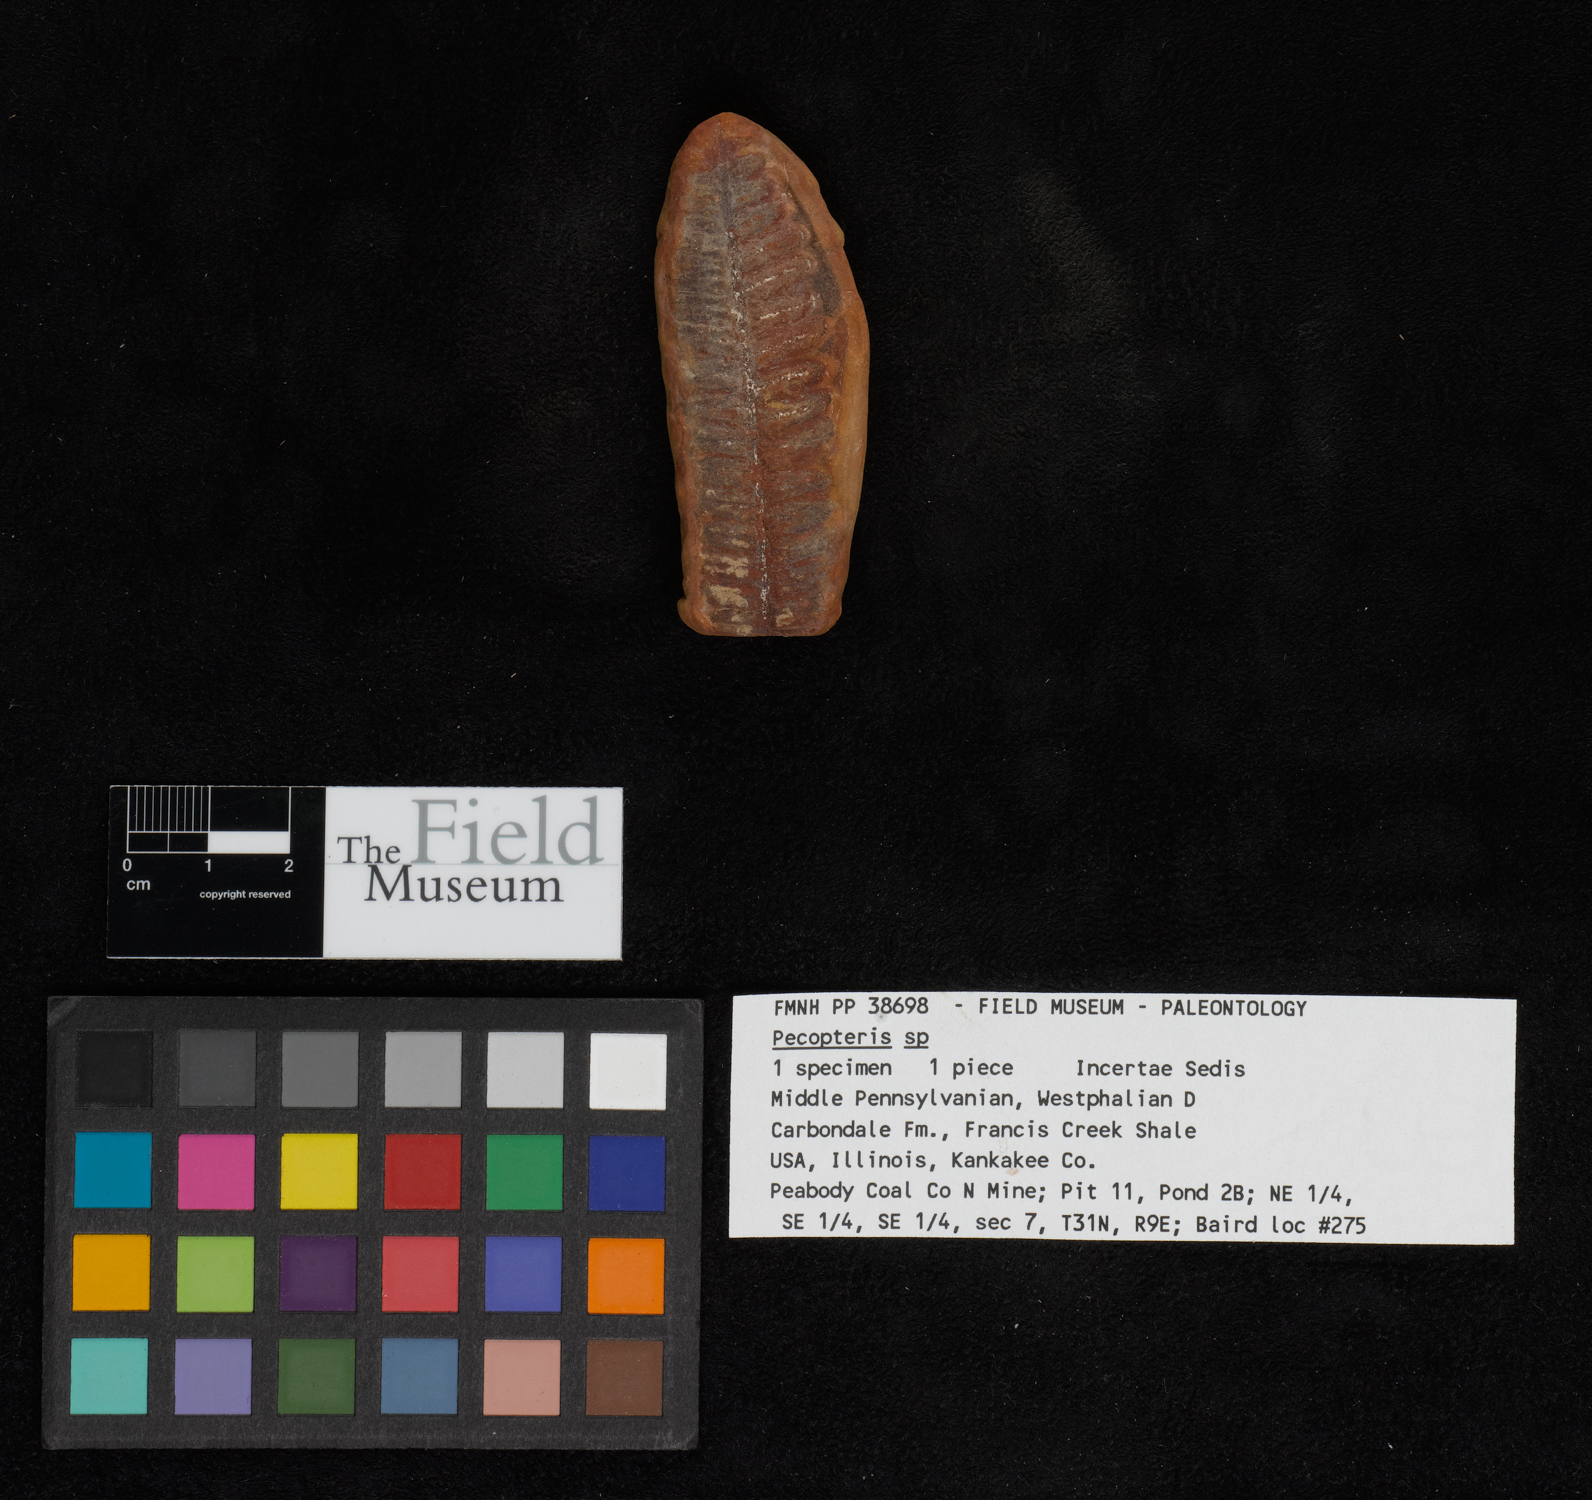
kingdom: Plantae
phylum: Tracheophyta
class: Polypodiopsida
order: Marattiales
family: Asterothecaceae
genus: Pecopteris
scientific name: Pecopteris
